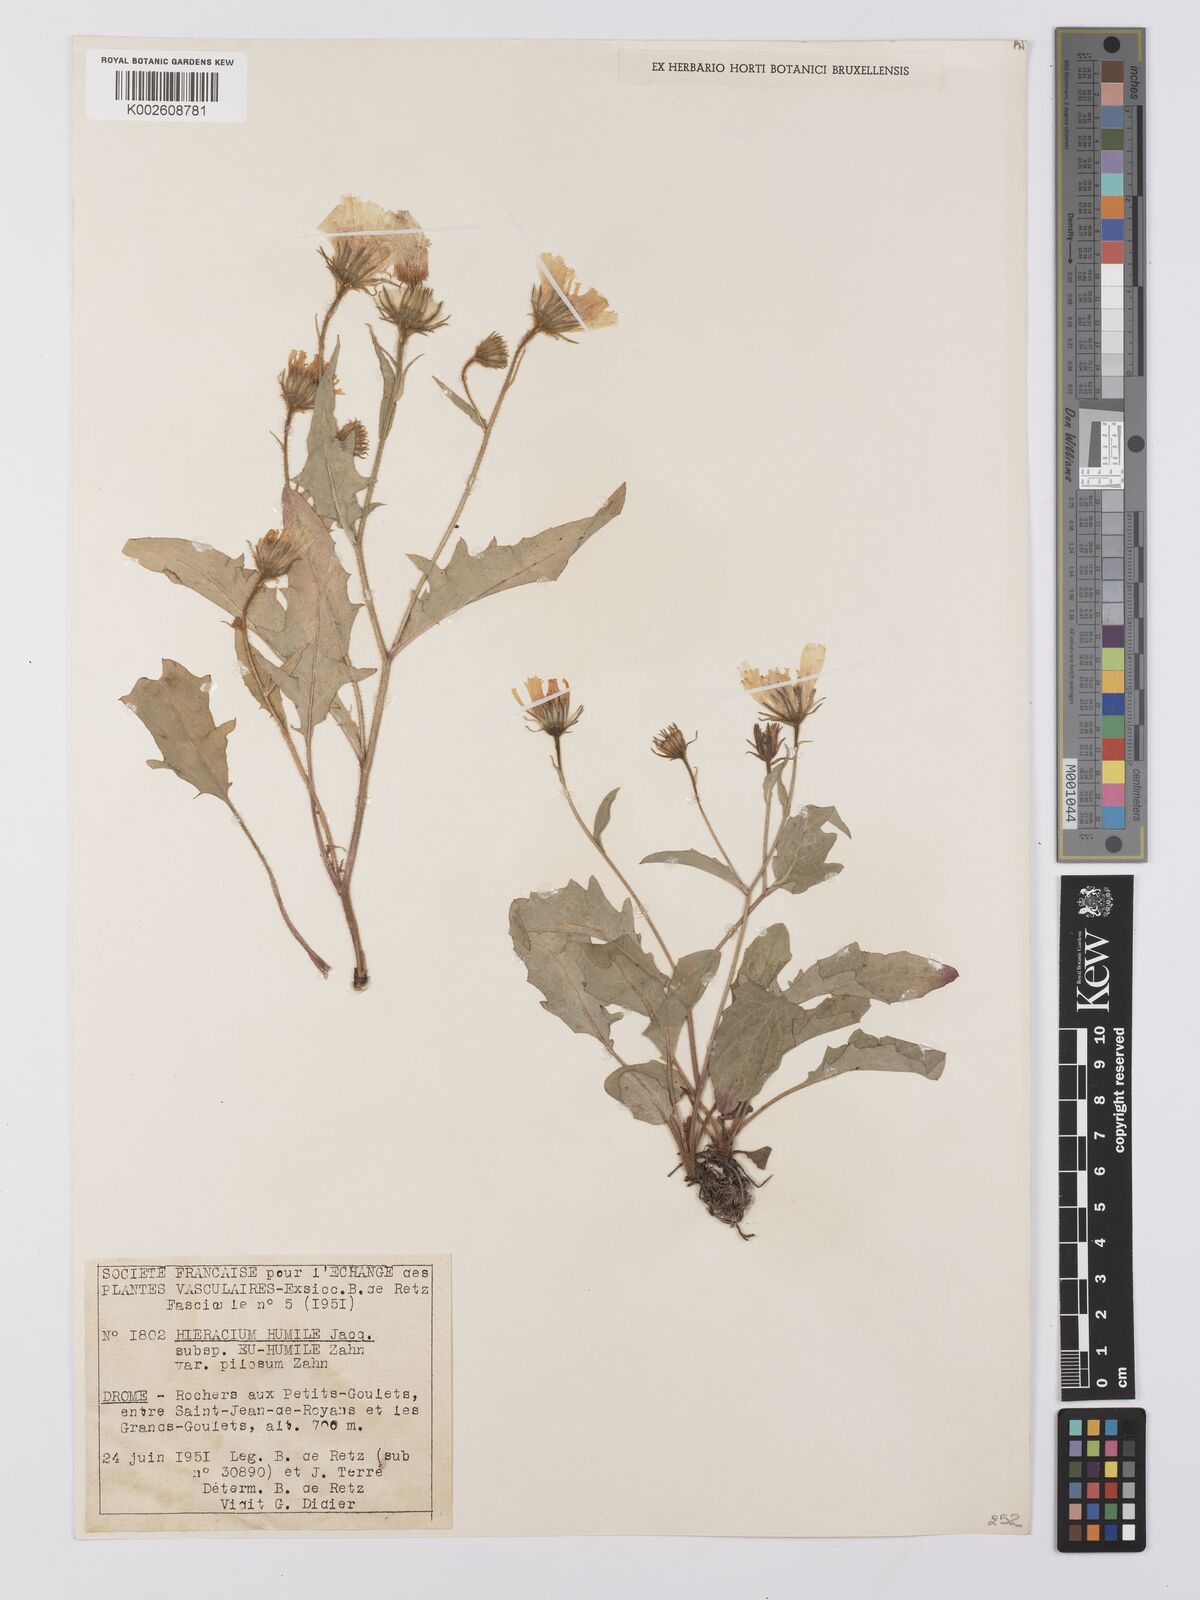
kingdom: Plantae
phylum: Tracheophyta
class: Magnoliopsida
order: Asterales
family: Asteraceae
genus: Hieracium
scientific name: Hieracium humile
